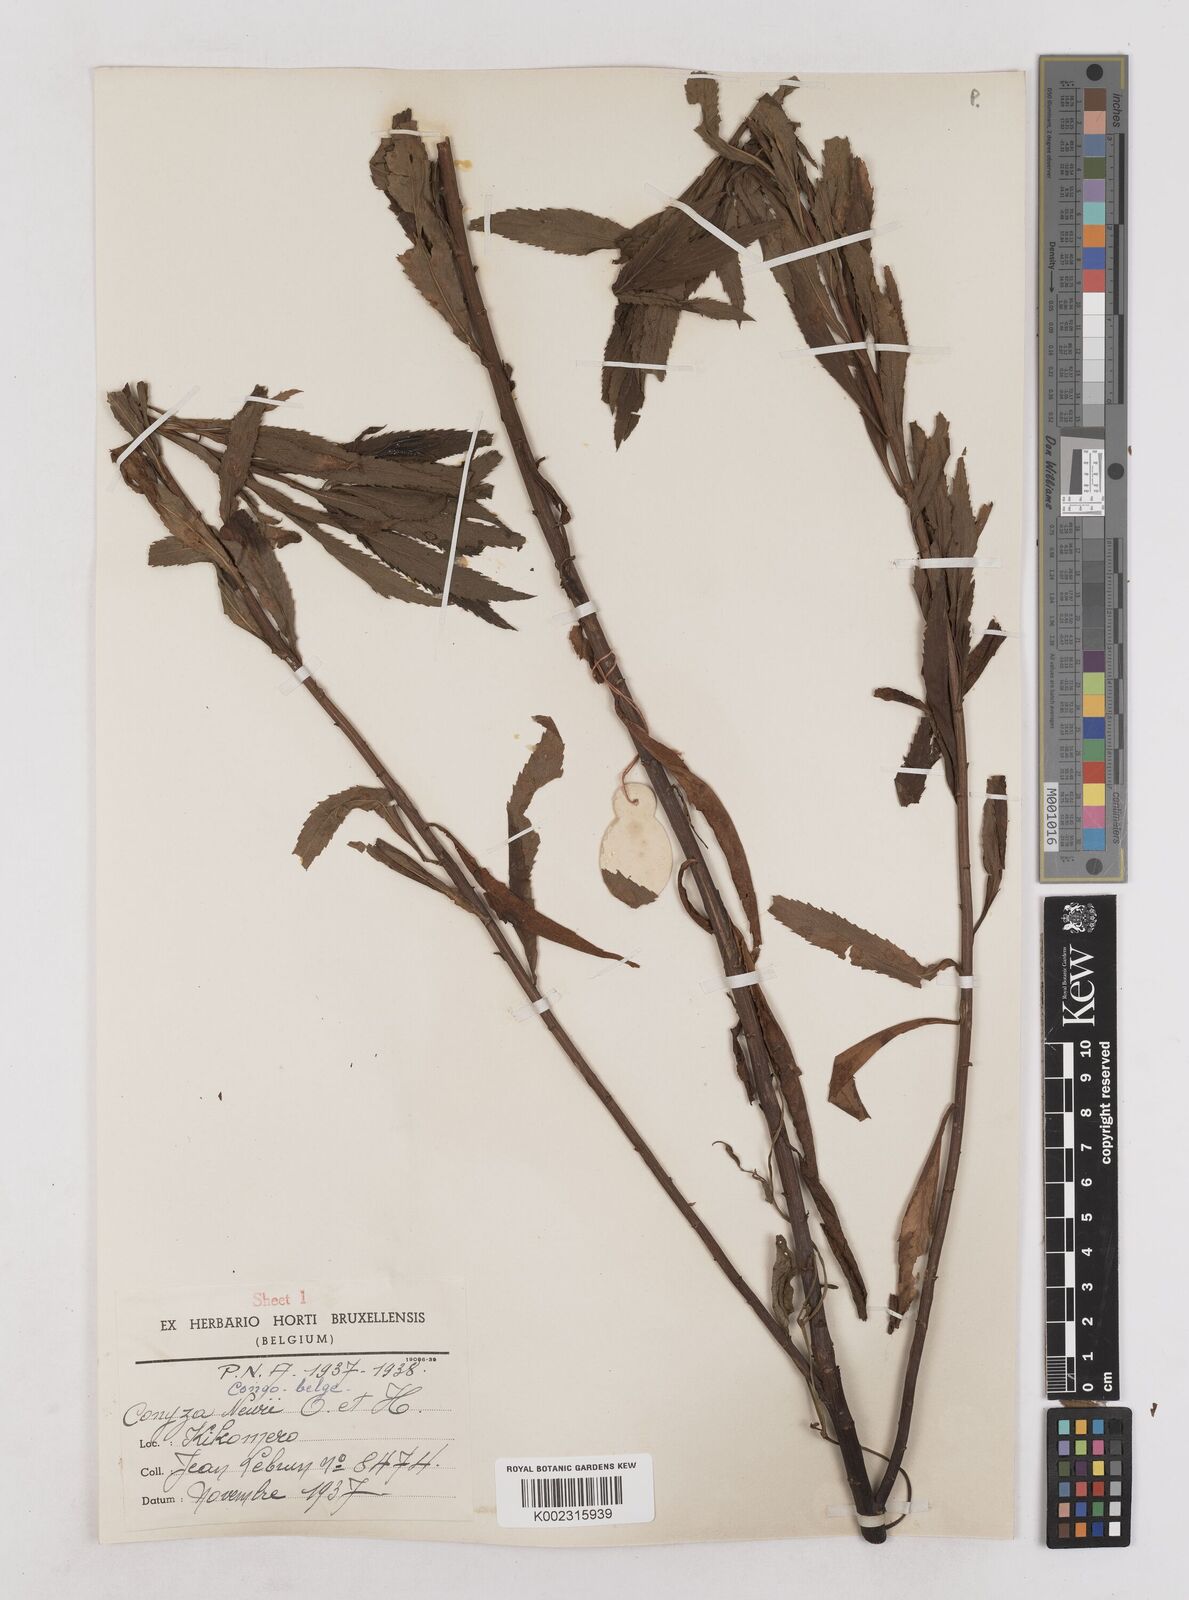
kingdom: Plantae
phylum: Tracheophyta
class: Magnoliopsida
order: Asterales
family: Asteraceae
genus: Conyza
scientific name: Conyza newii
